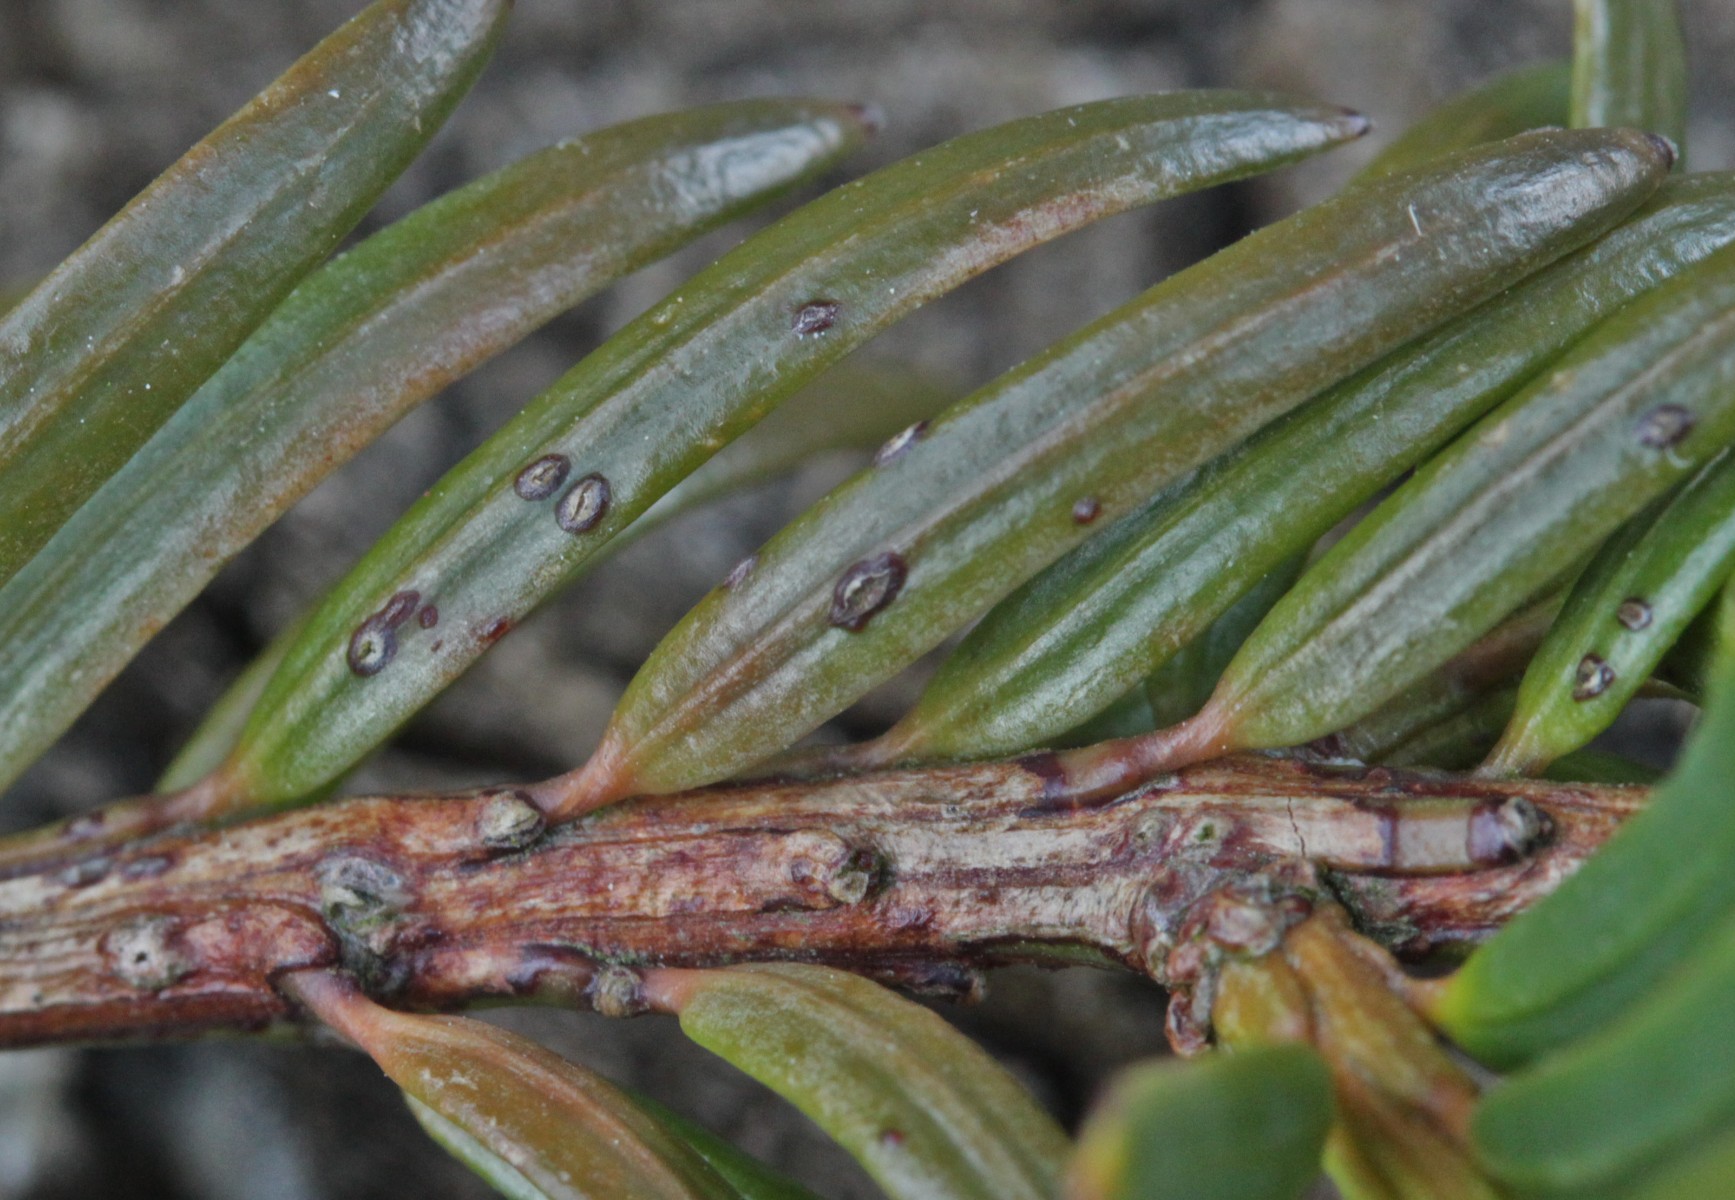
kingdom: Fungi
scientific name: Fungi
